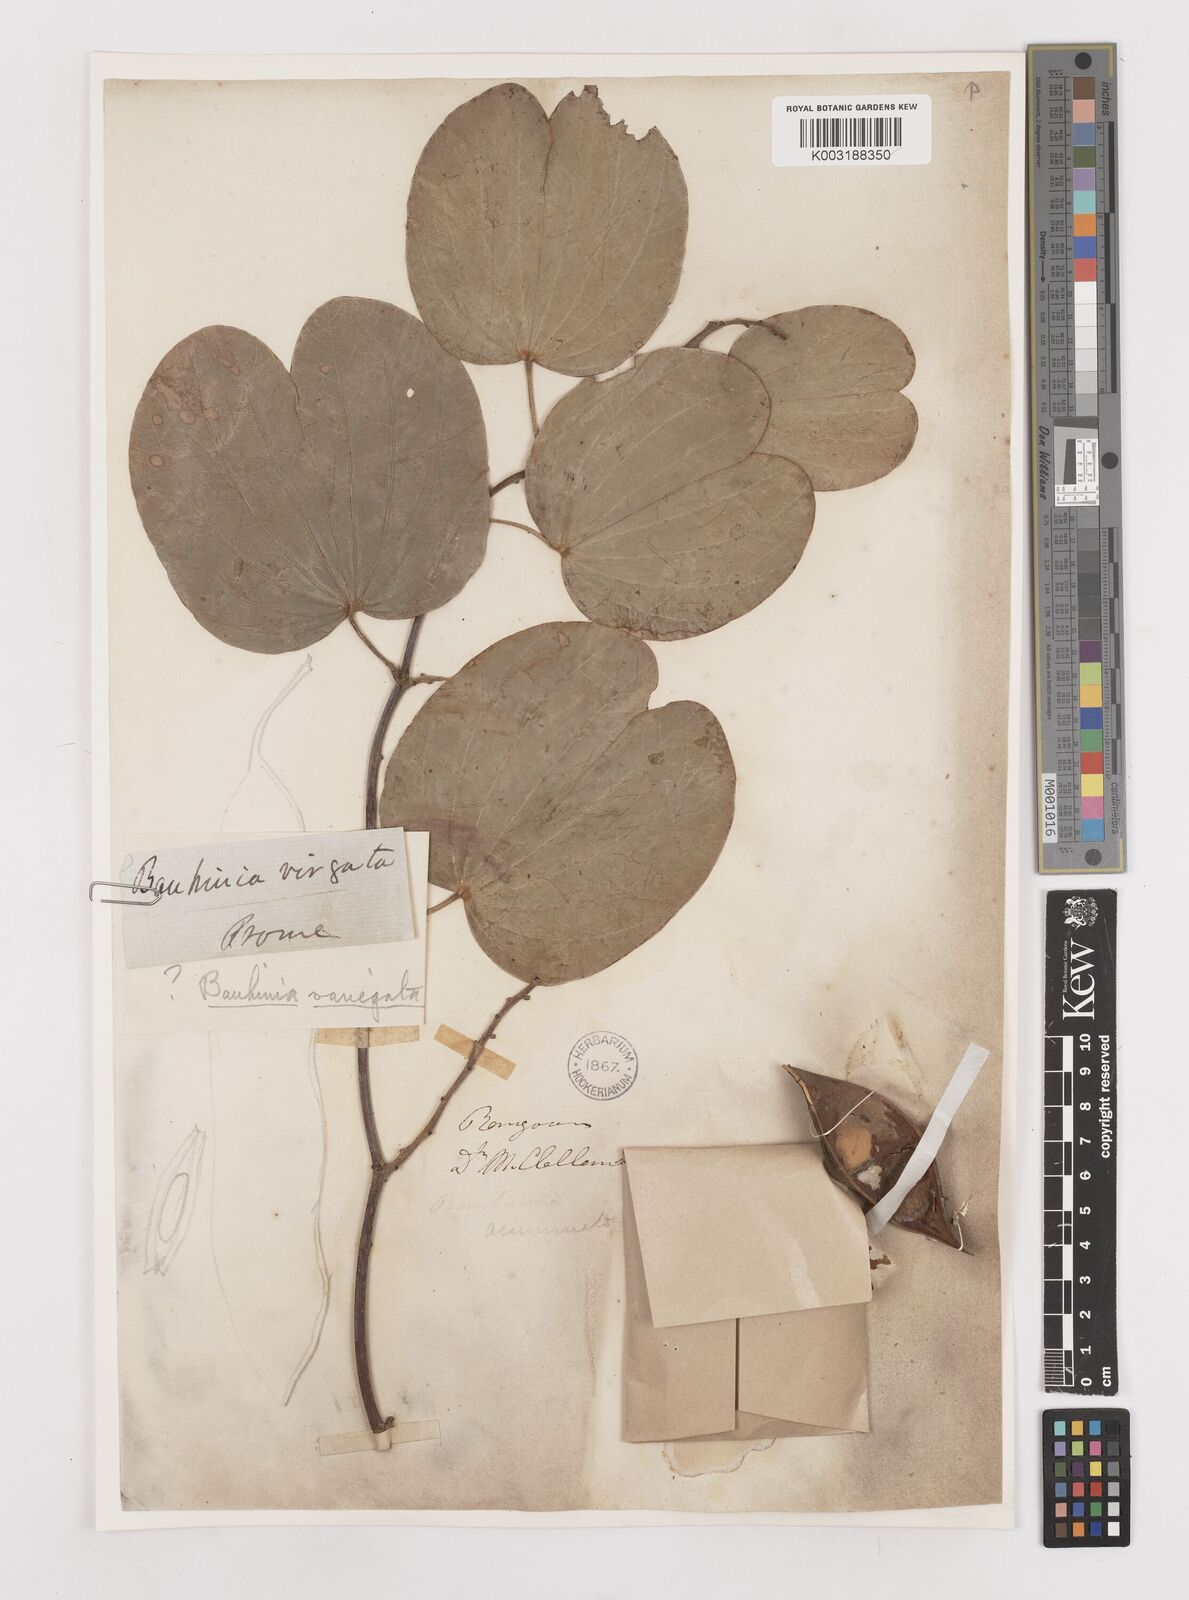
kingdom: Plantae
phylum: Tracheophyta
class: Magnoliopsida
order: Fabales
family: Fabaceae
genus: Bauhinia
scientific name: Bauhinia variegata
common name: Mountain ebony
